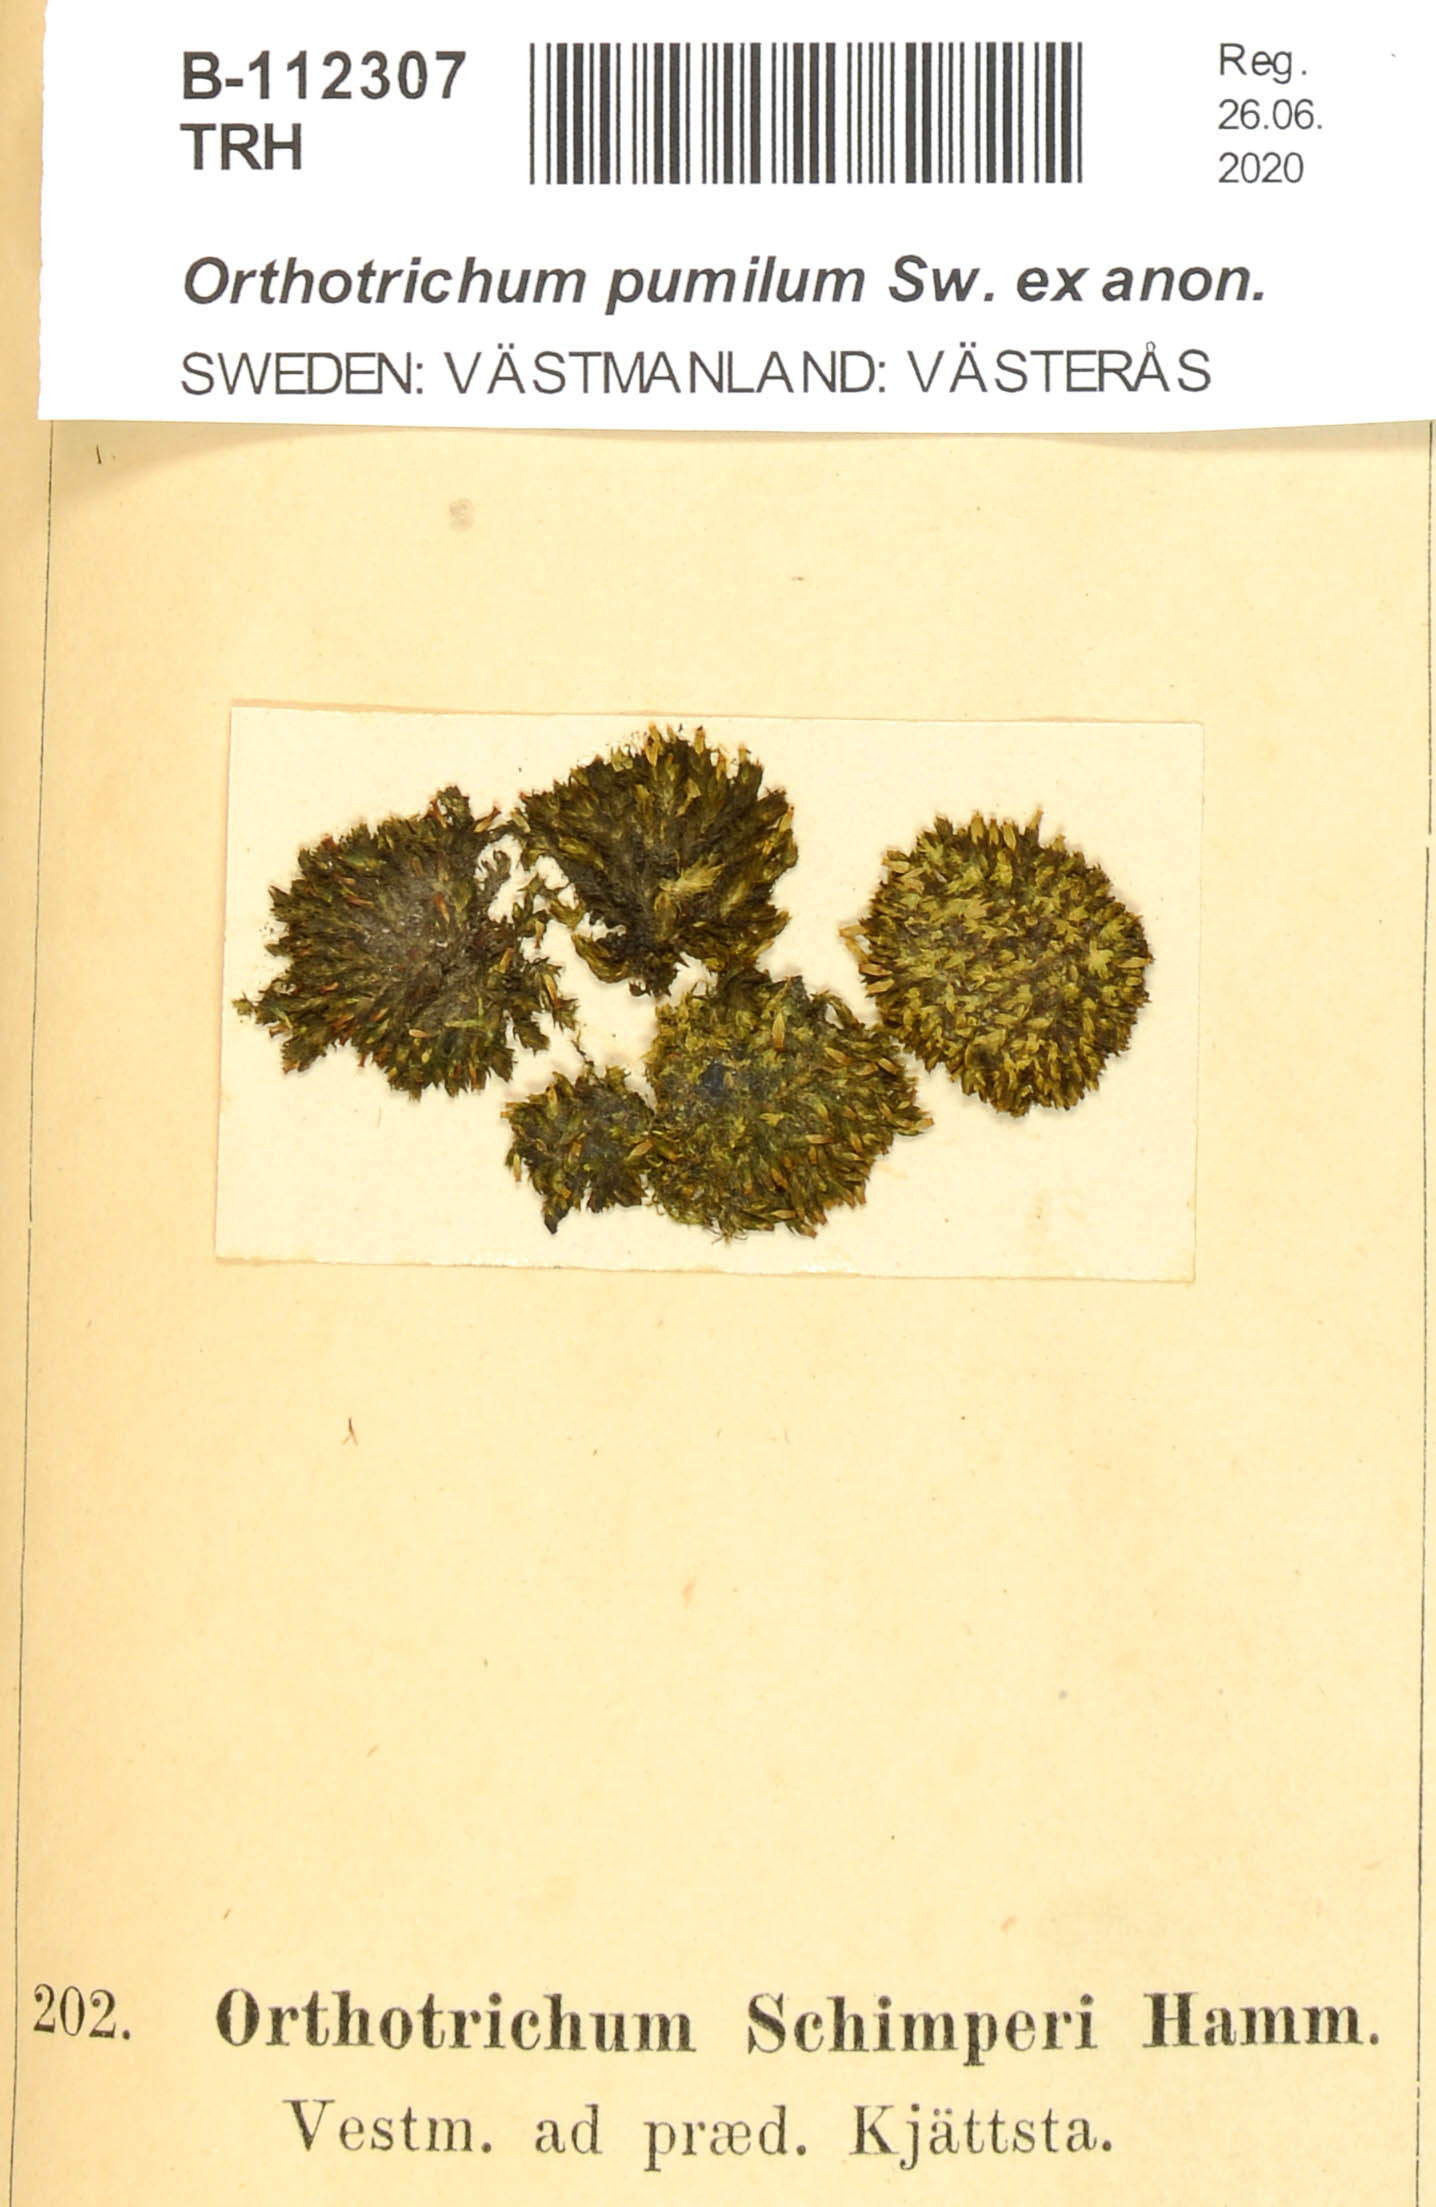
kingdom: Plantae
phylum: Bryophyta
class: Bryopsida
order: Orthotrichales
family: Orthotrichaceae
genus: Orthotrichum
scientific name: Orthotrichum schimperi
